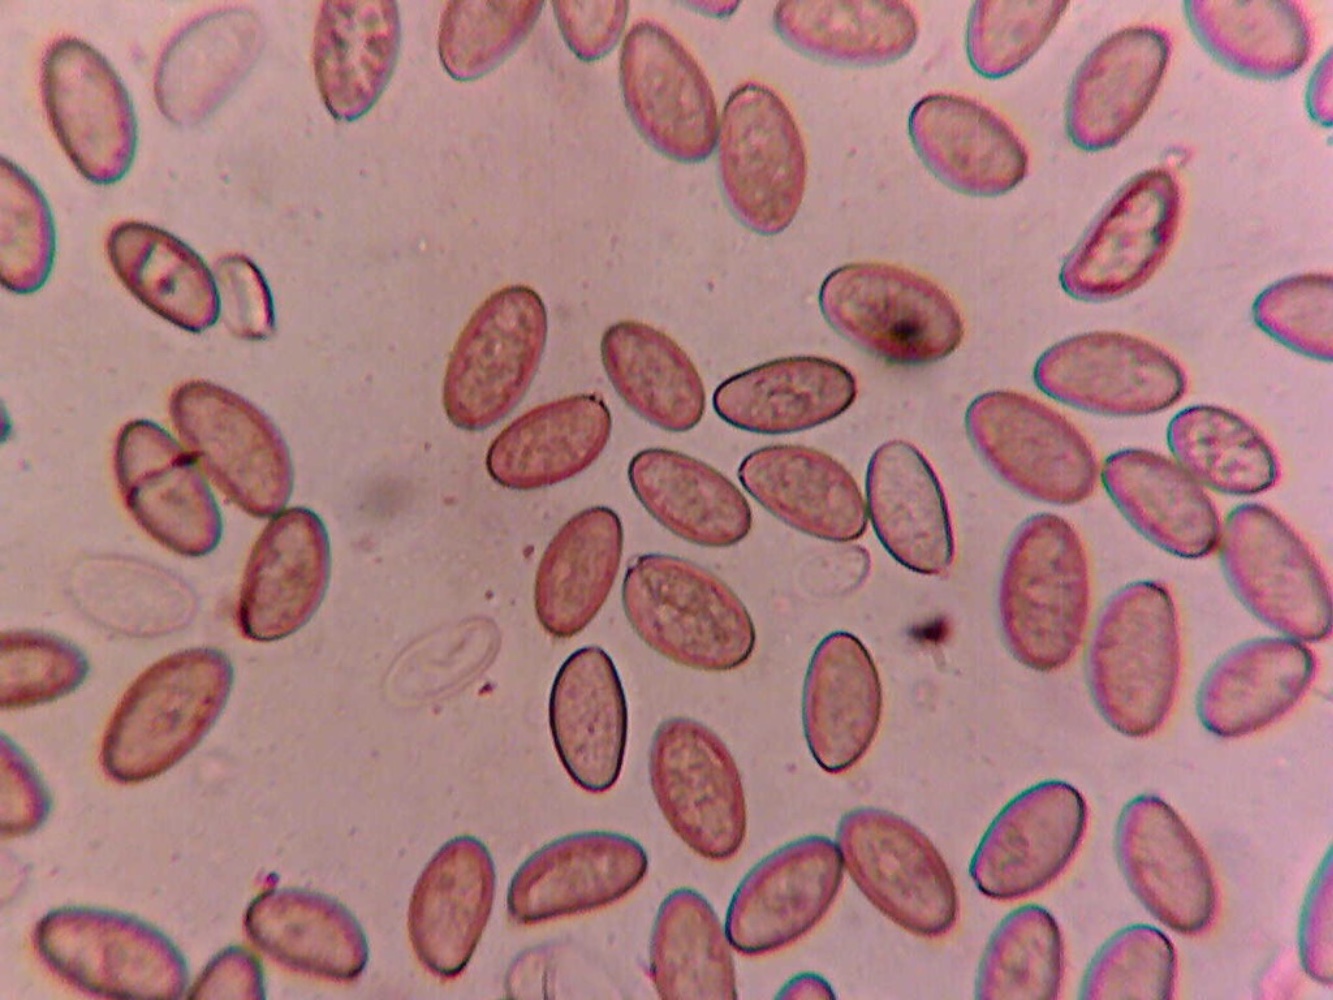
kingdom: Fungi
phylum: Basidiomycota
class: Agaricomycetes
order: Agaricales
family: Inocybaceae
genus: Inosperma
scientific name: Inosperma cervicolor
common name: hjortebrun trævlhat
